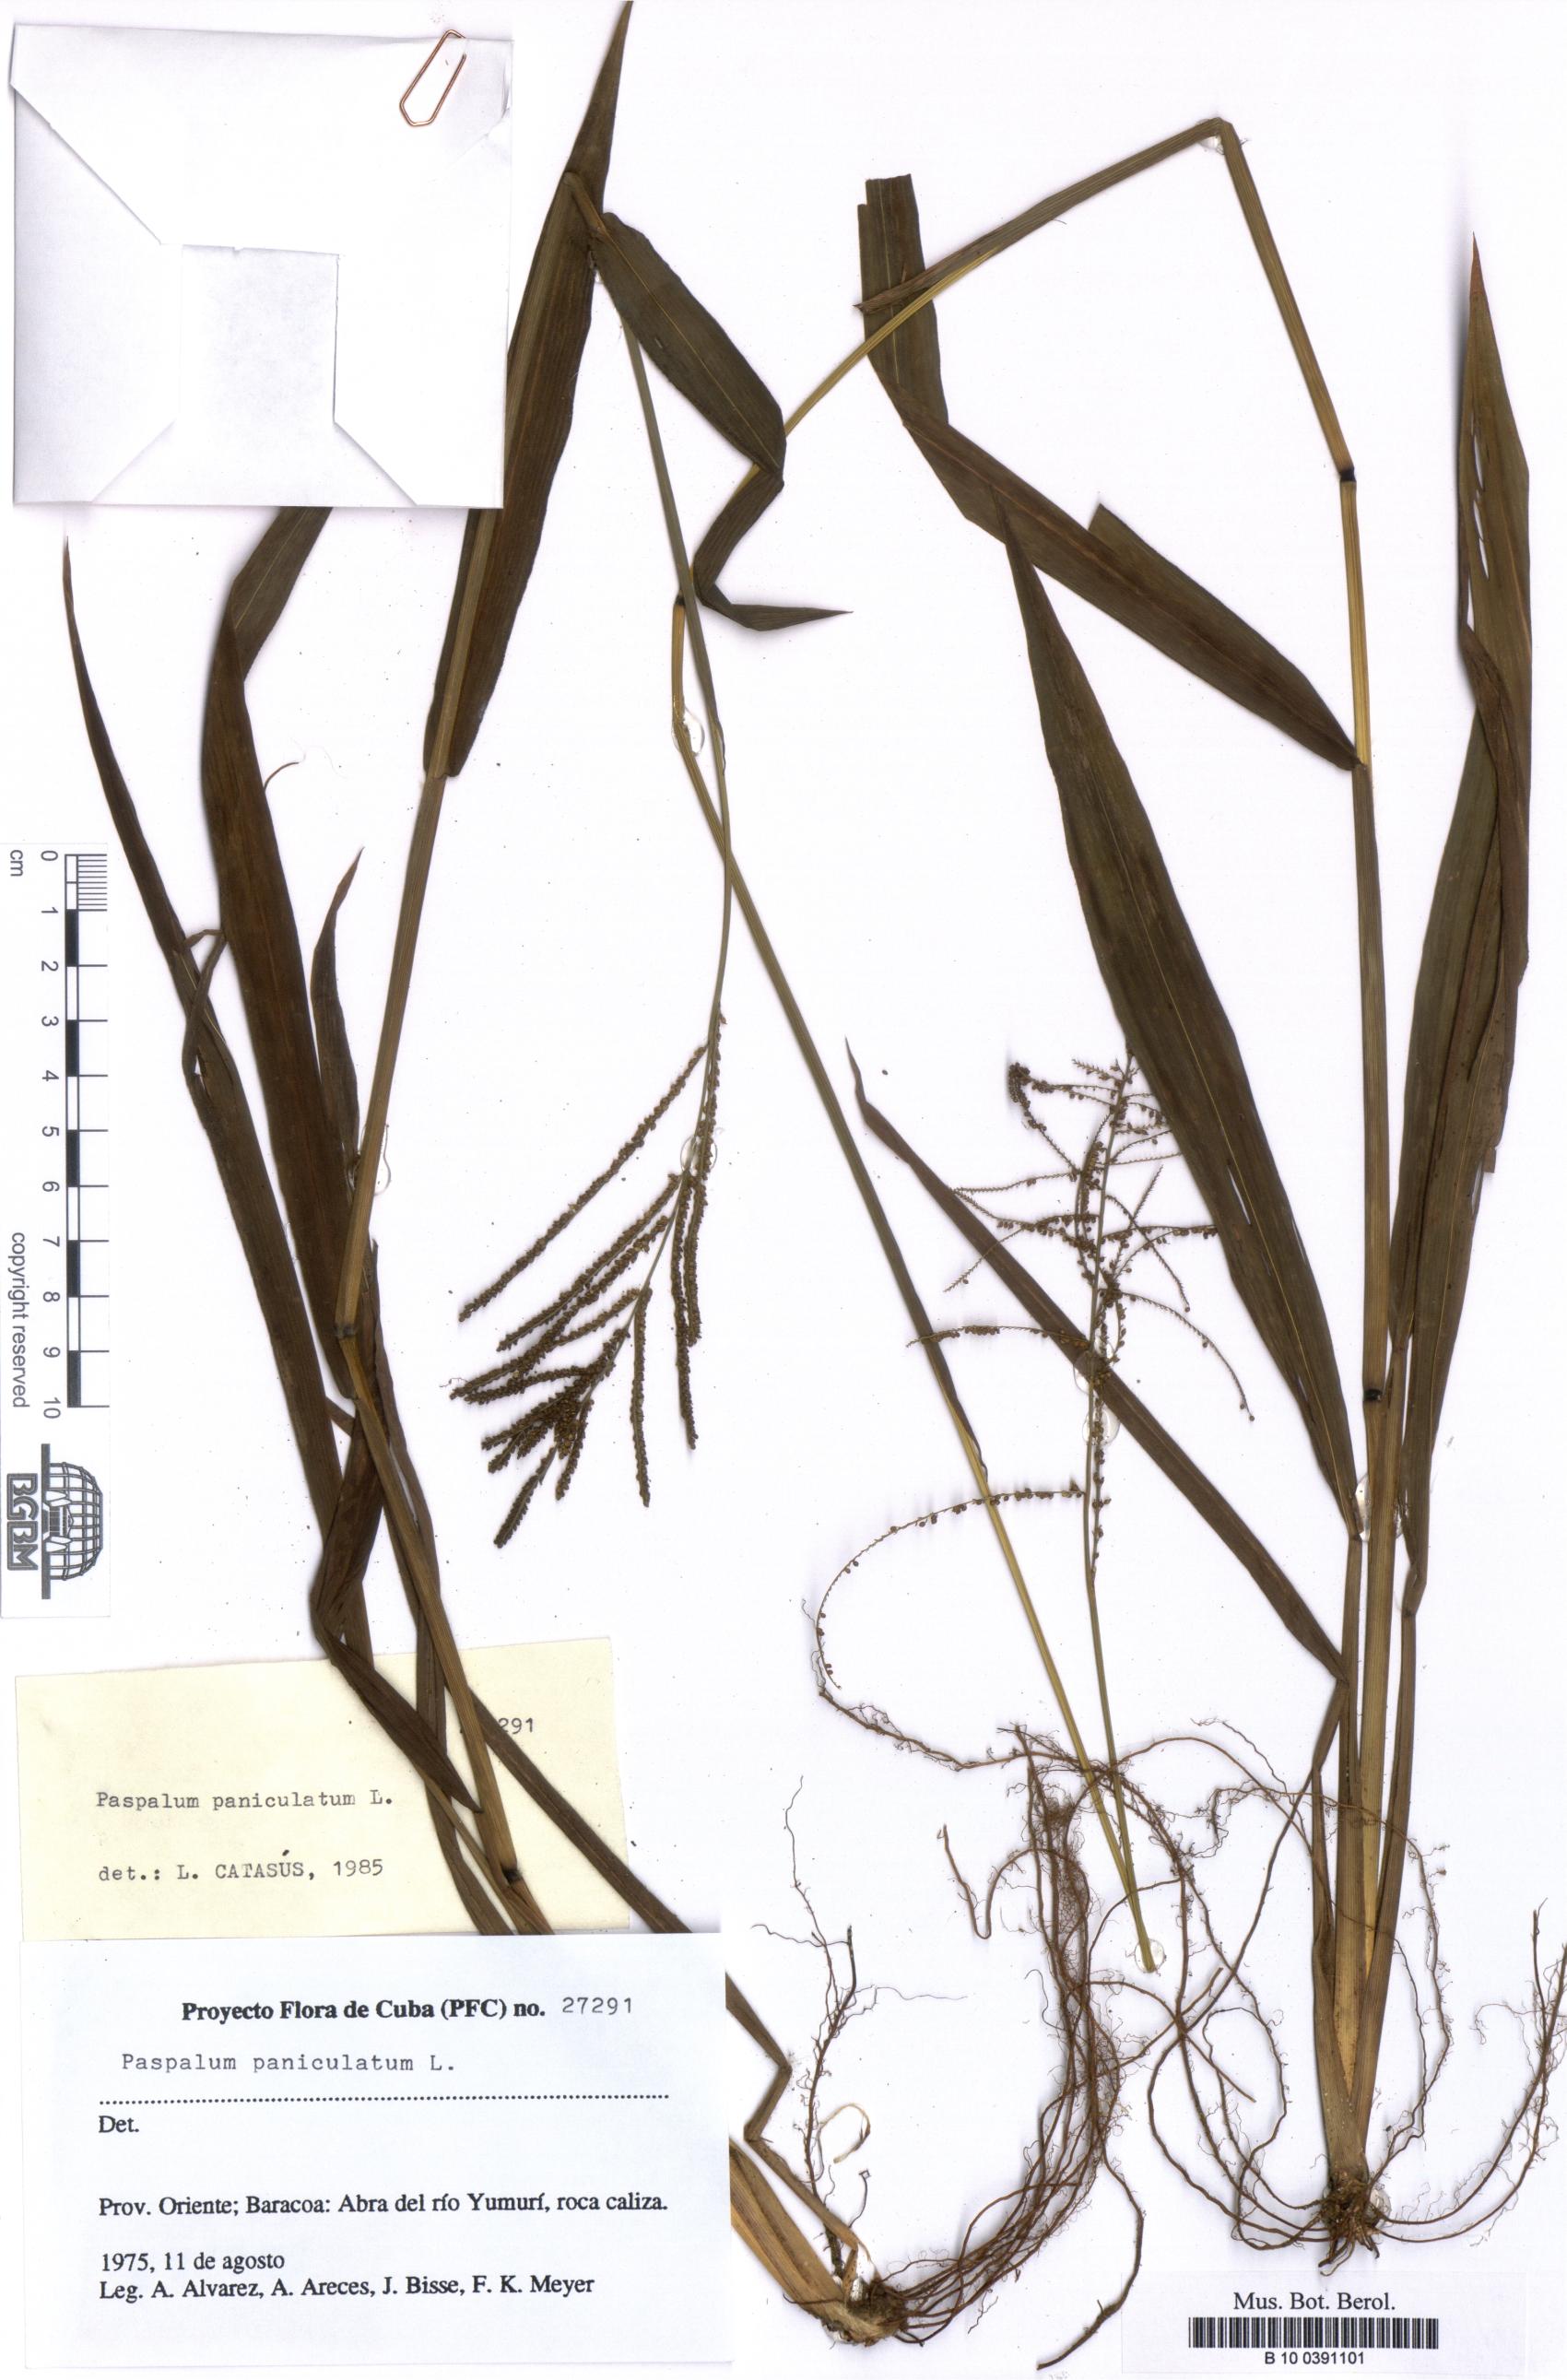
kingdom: Plantae
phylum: Tracheophyta
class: Liliopsida
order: Poales
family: Poaceae
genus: Paspalum
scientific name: Paspalum paniculatum
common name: Arrocillo
